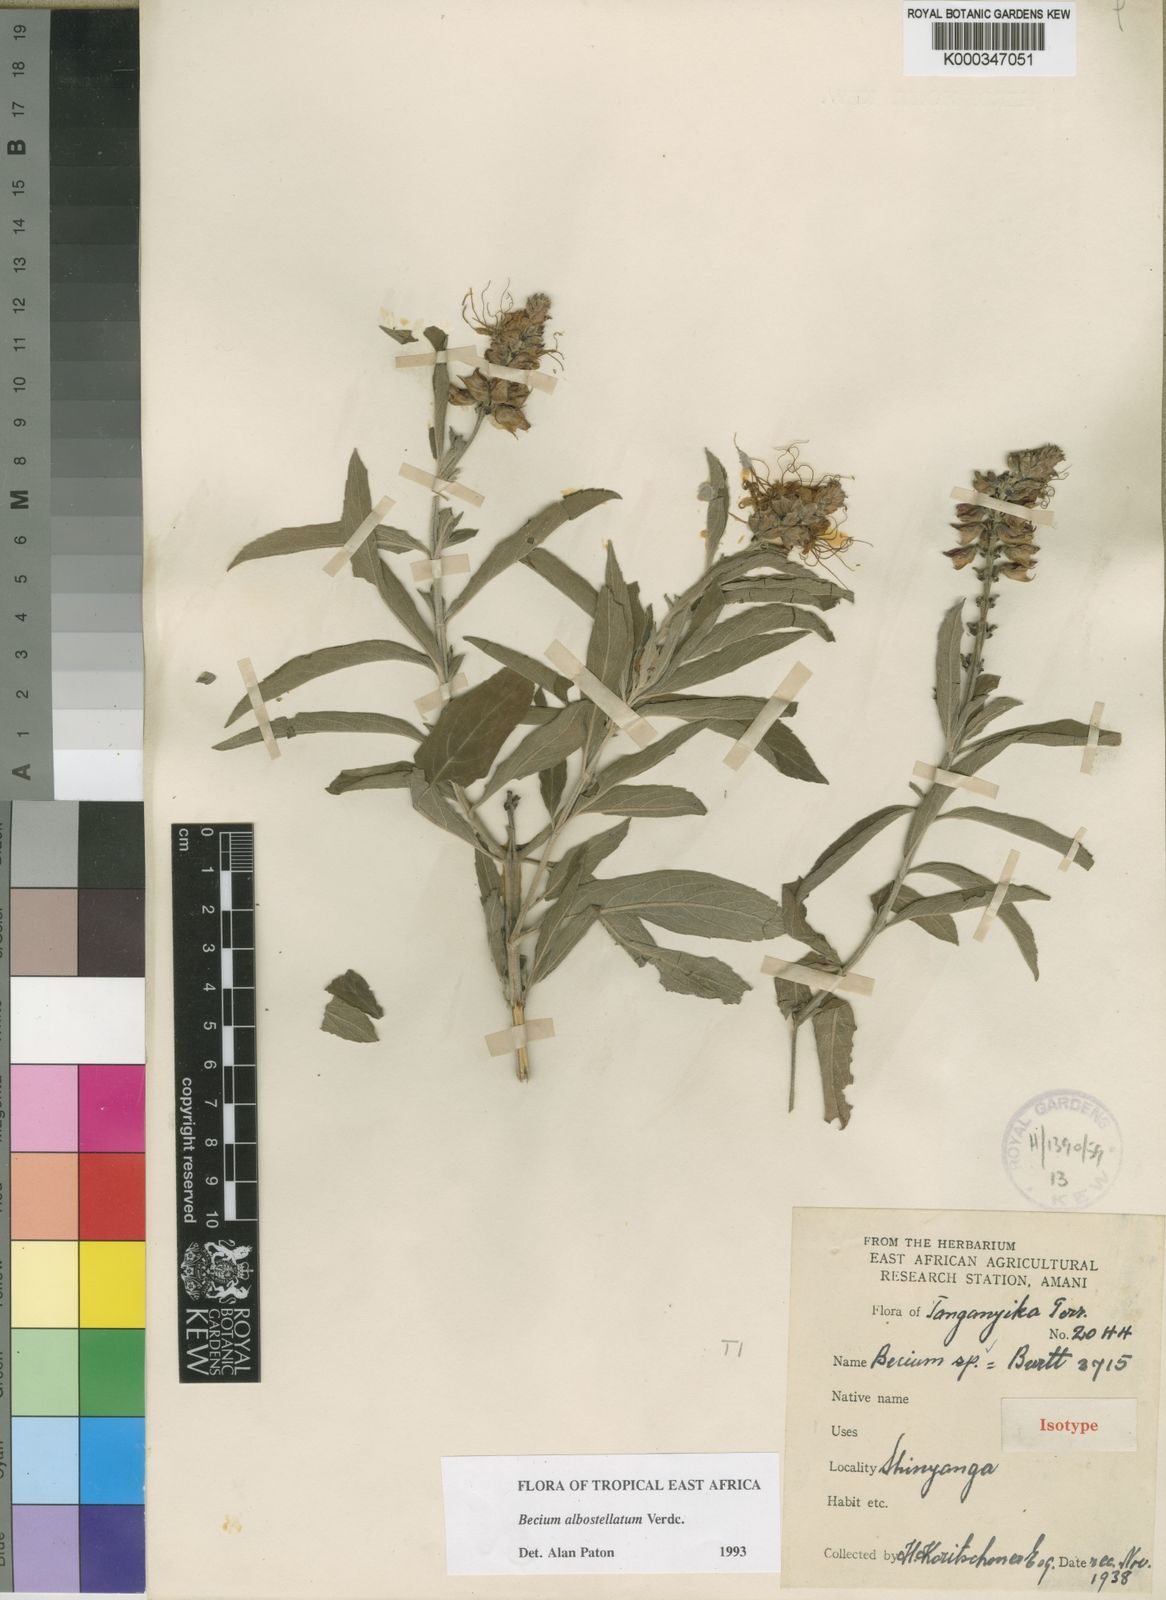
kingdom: Plantae
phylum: Tracheophyta
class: Magnoliopsida
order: Lamiales
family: Lamiaceae
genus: Ocimum
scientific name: Ocimum albostellatum
